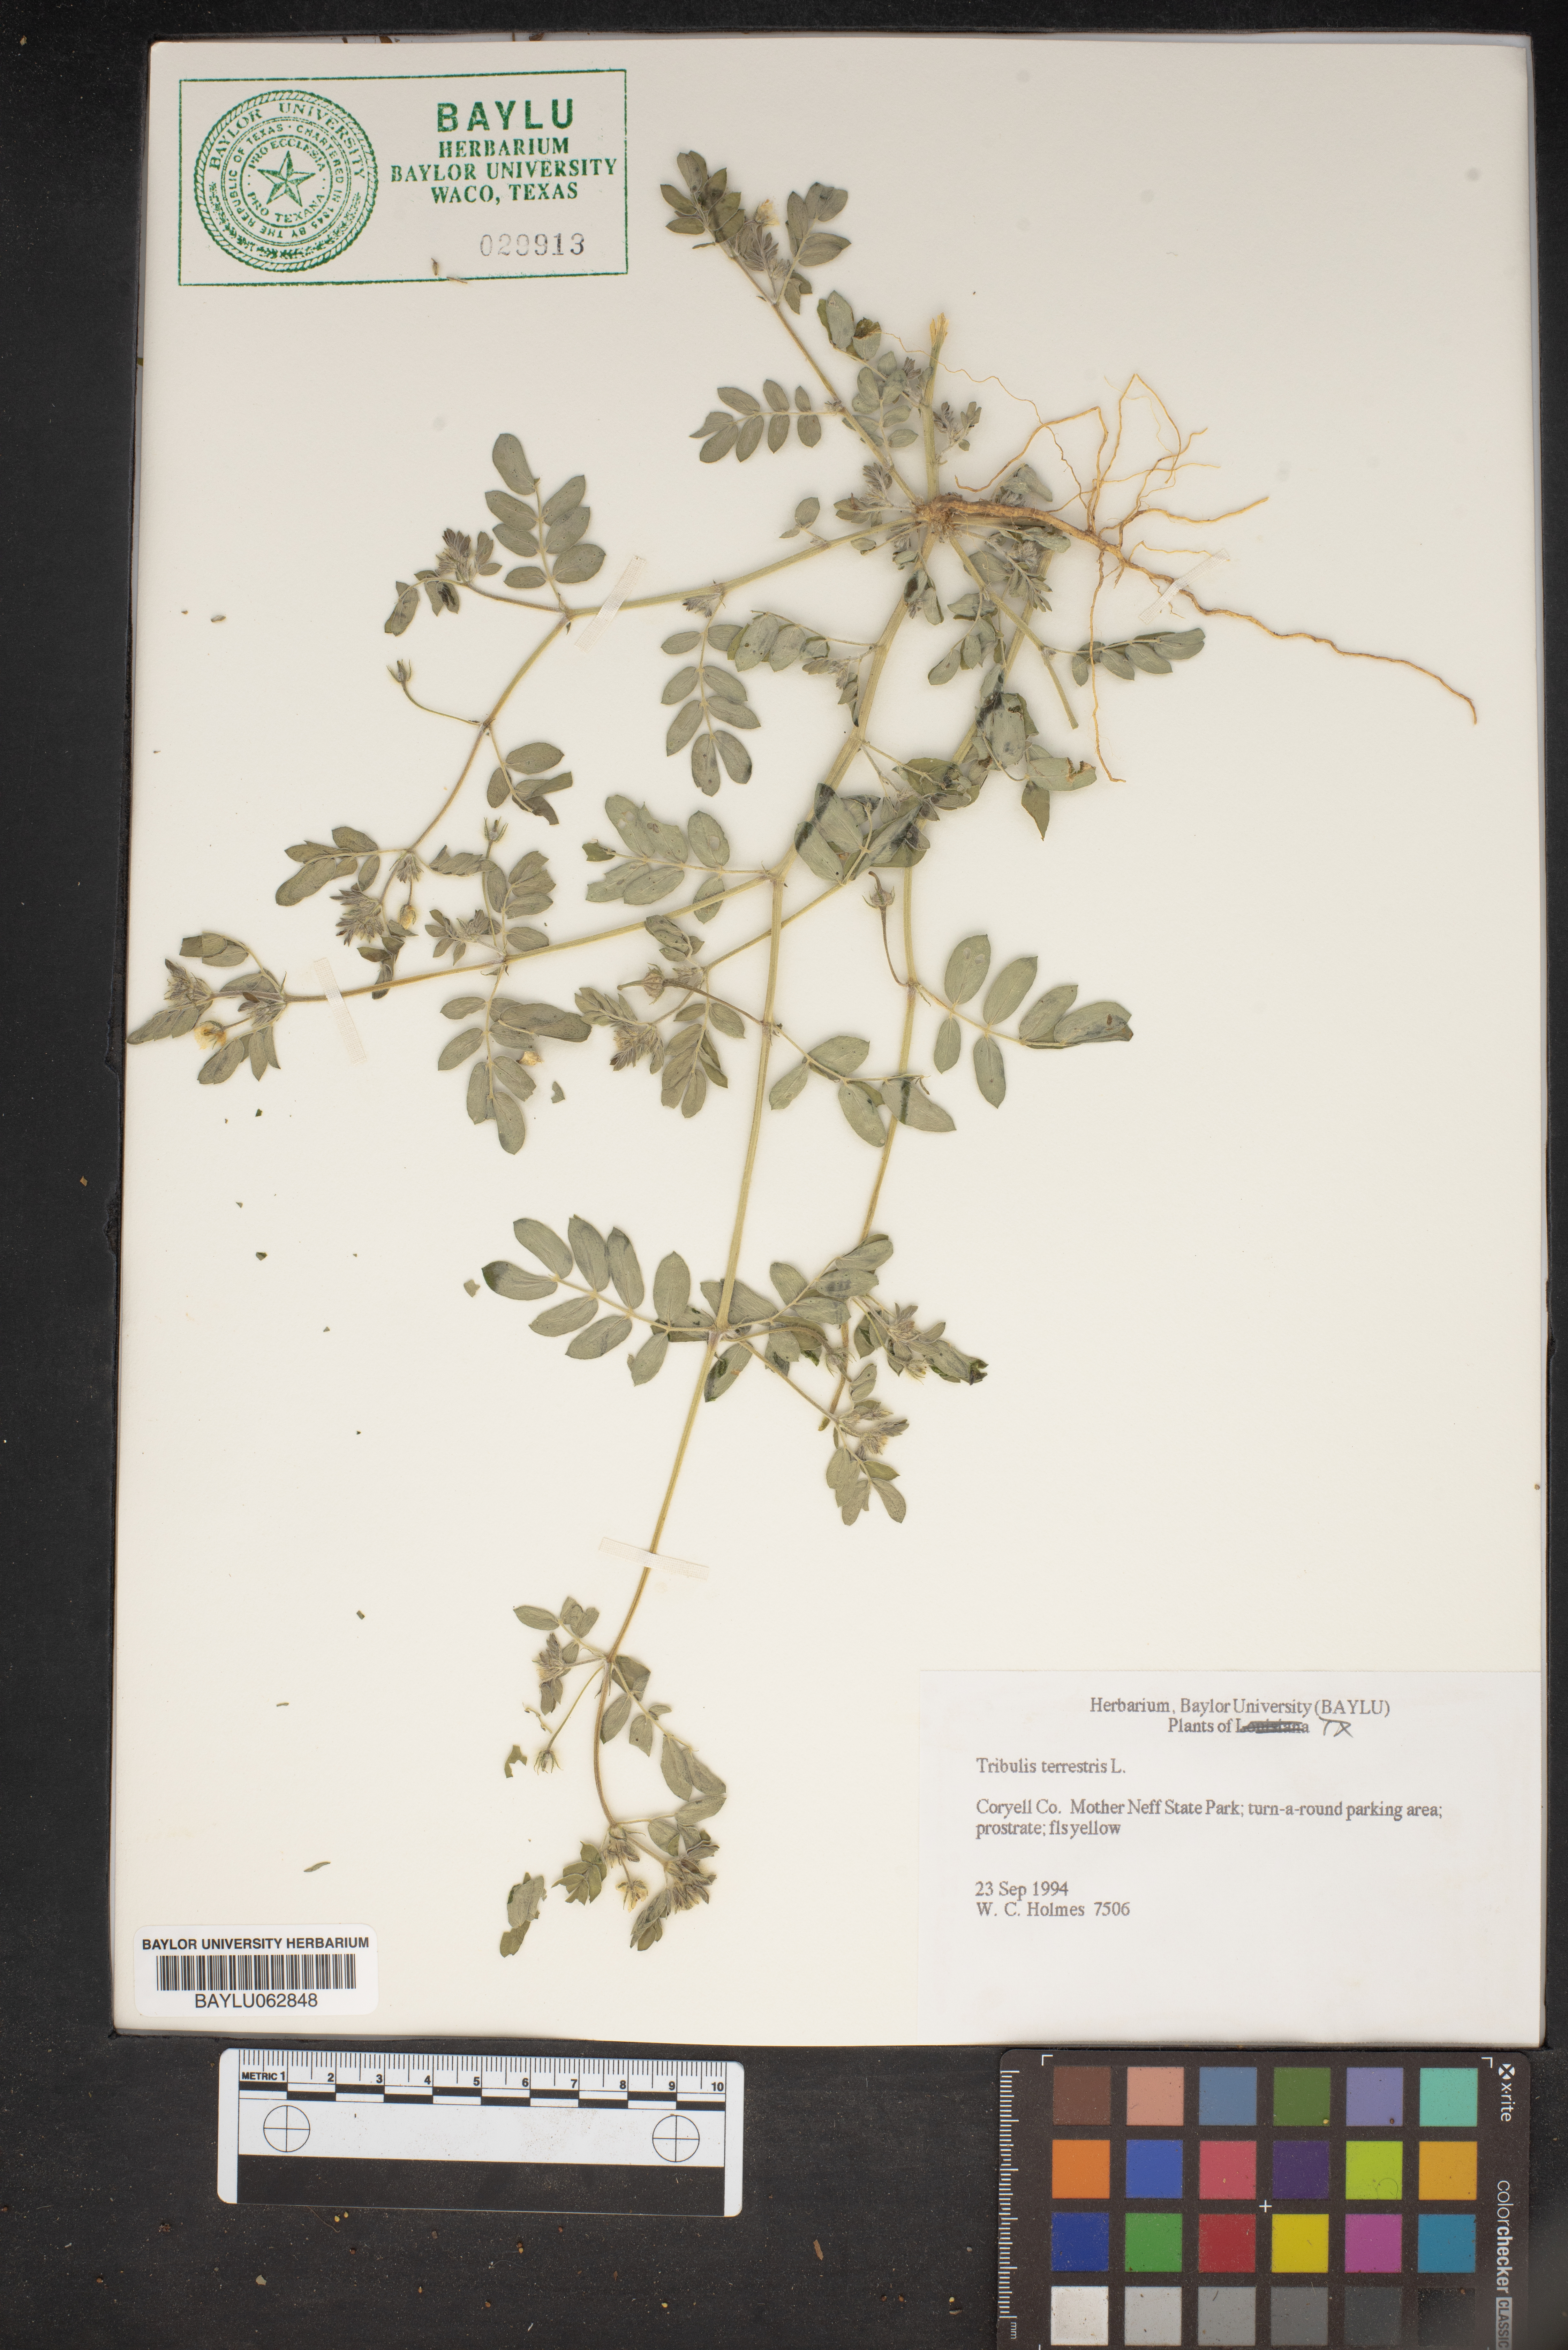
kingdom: Plantae
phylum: Tracheophyta
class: Magnoliopsida
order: Zygophyllales
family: Zygophyllaceae
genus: Tribulus
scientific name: Tribulus terrestris
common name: Puncturevine
